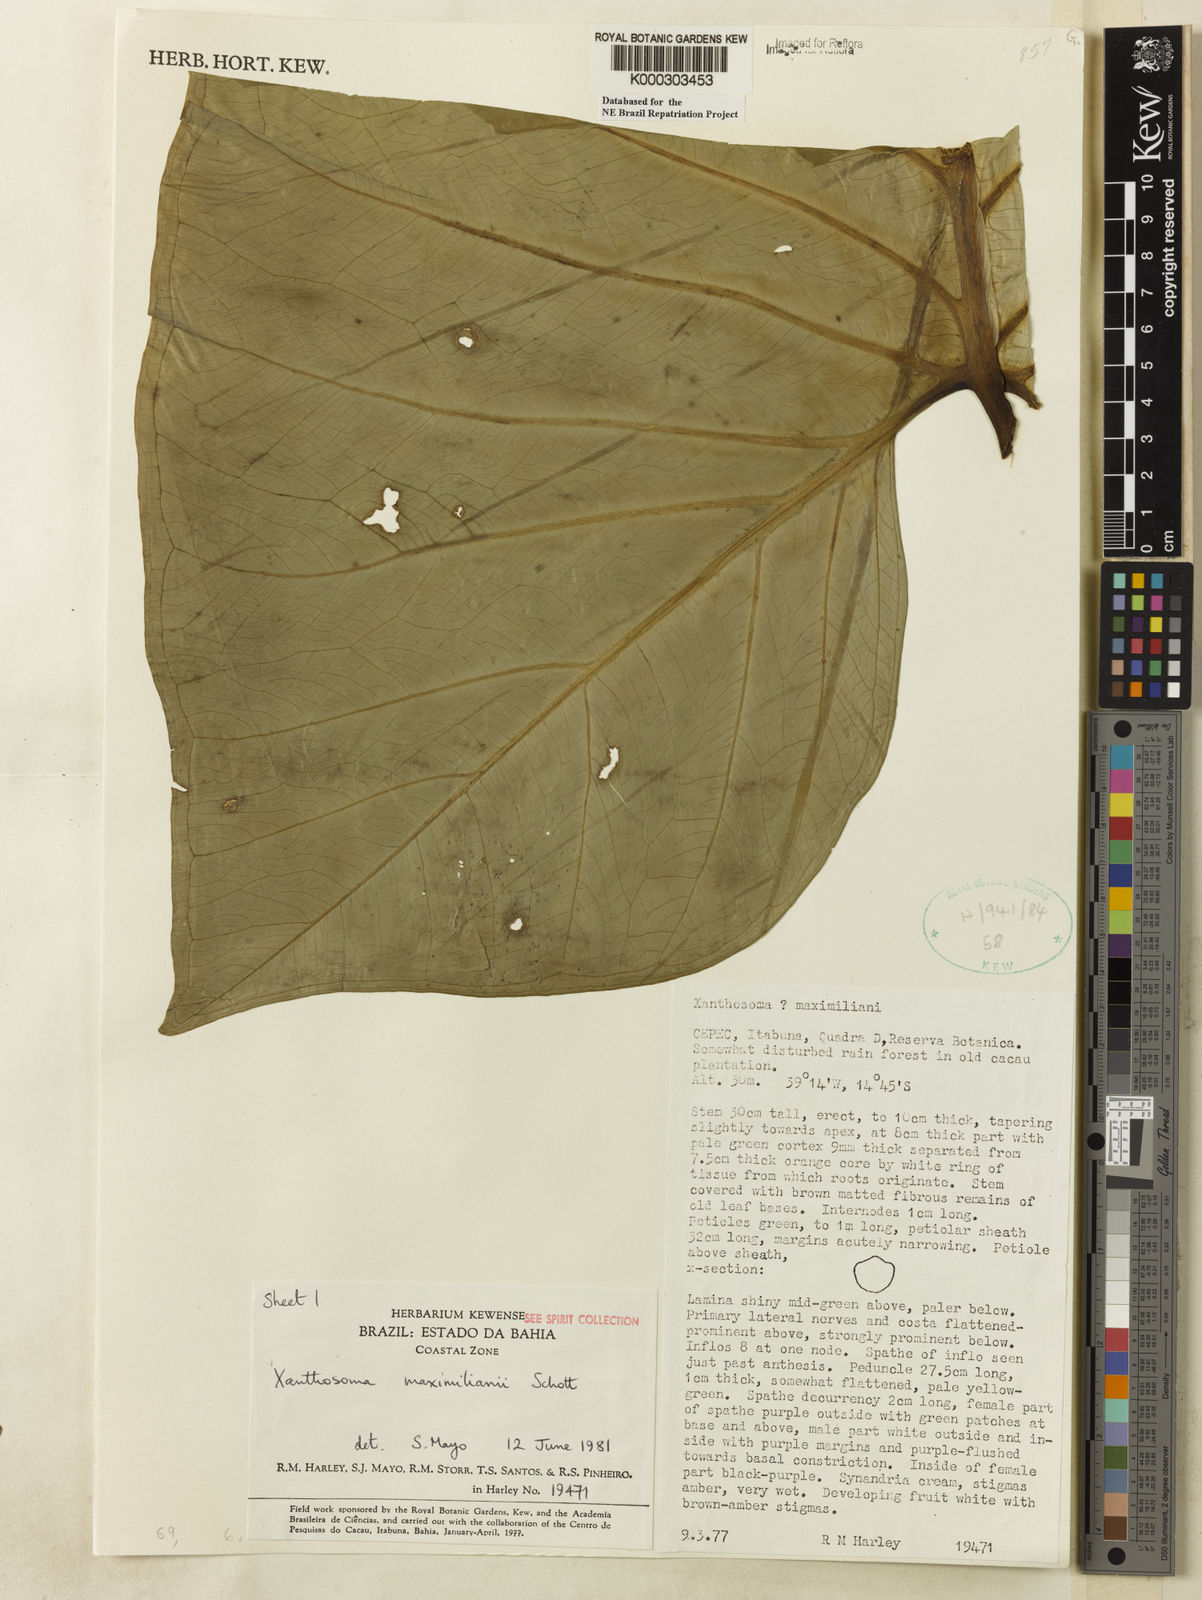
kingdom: Plantae
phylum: Tracheophyta
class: Liliopsida
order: Alismatales
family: Araceae
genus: Xanthosoma
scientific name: Xanthosoma maximiliani
